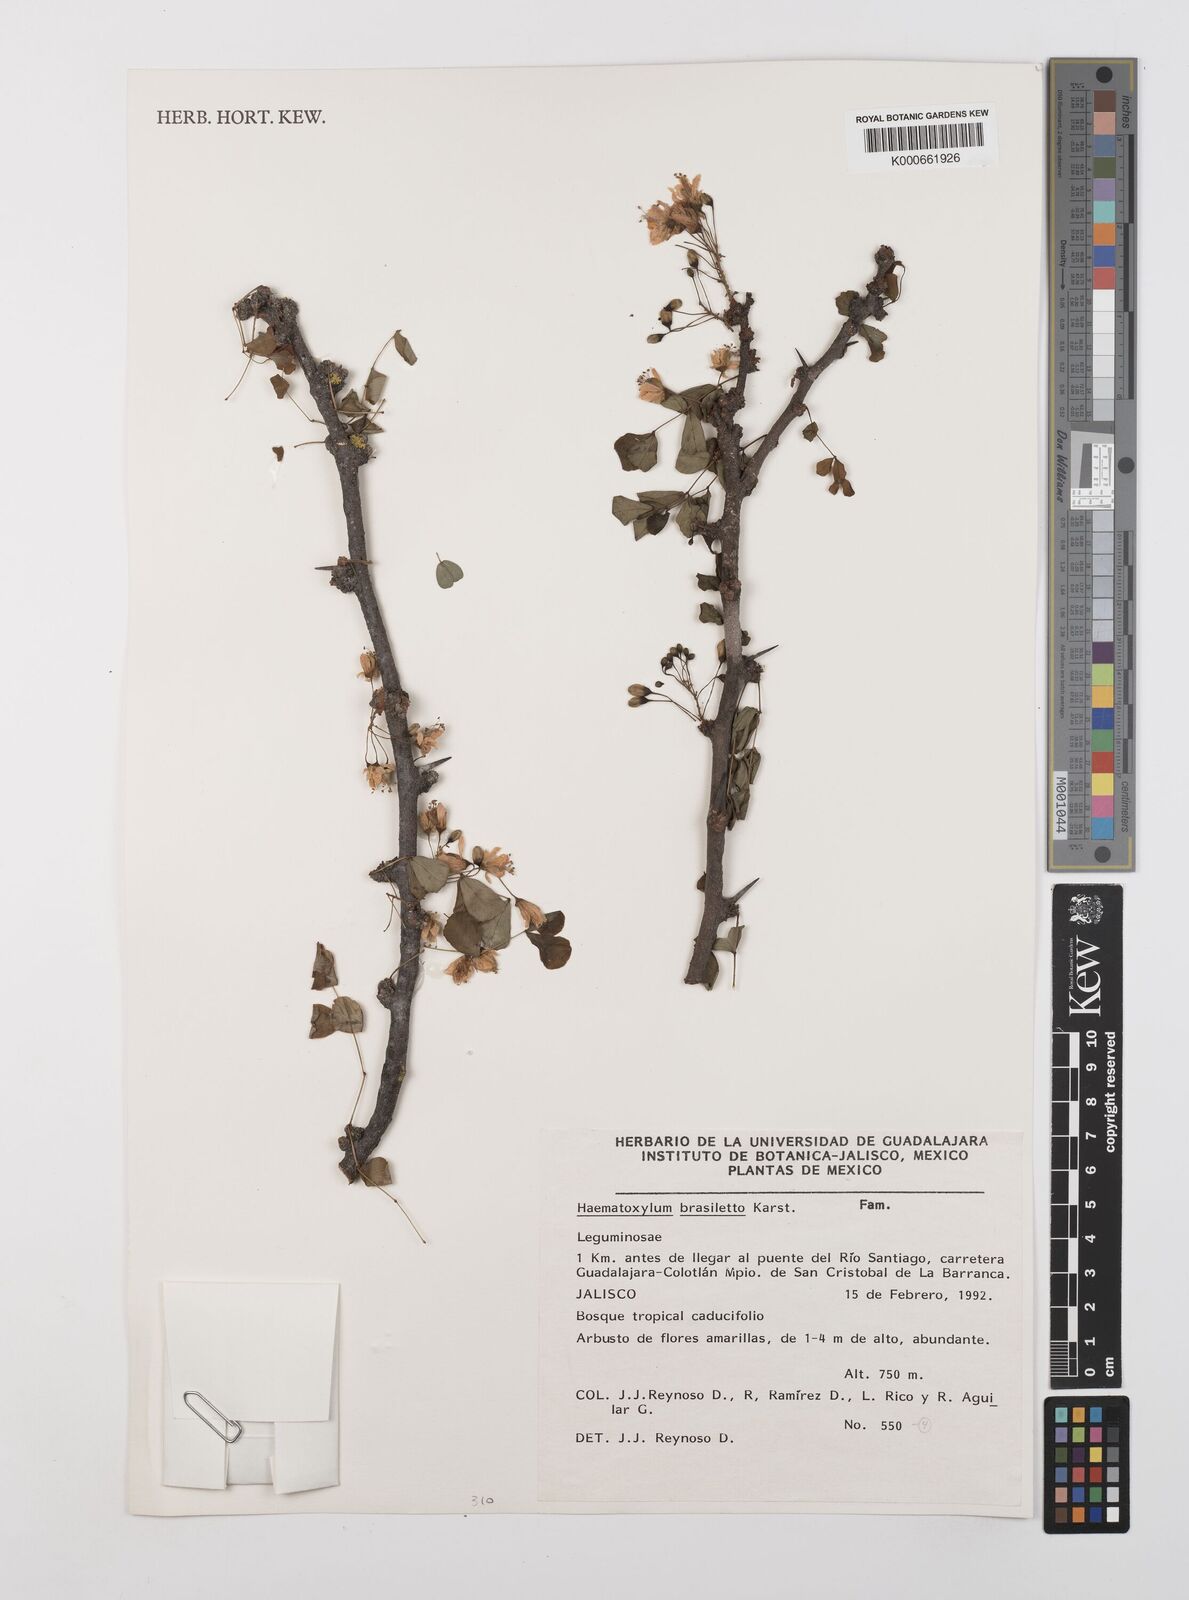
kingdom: Plantae
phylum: Tracheophyta
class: Magnoliopsida
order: Fabales
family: Fabaceae
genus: Haematoxylum
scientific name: Haematoxylum brasiletto
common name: Peachwood
